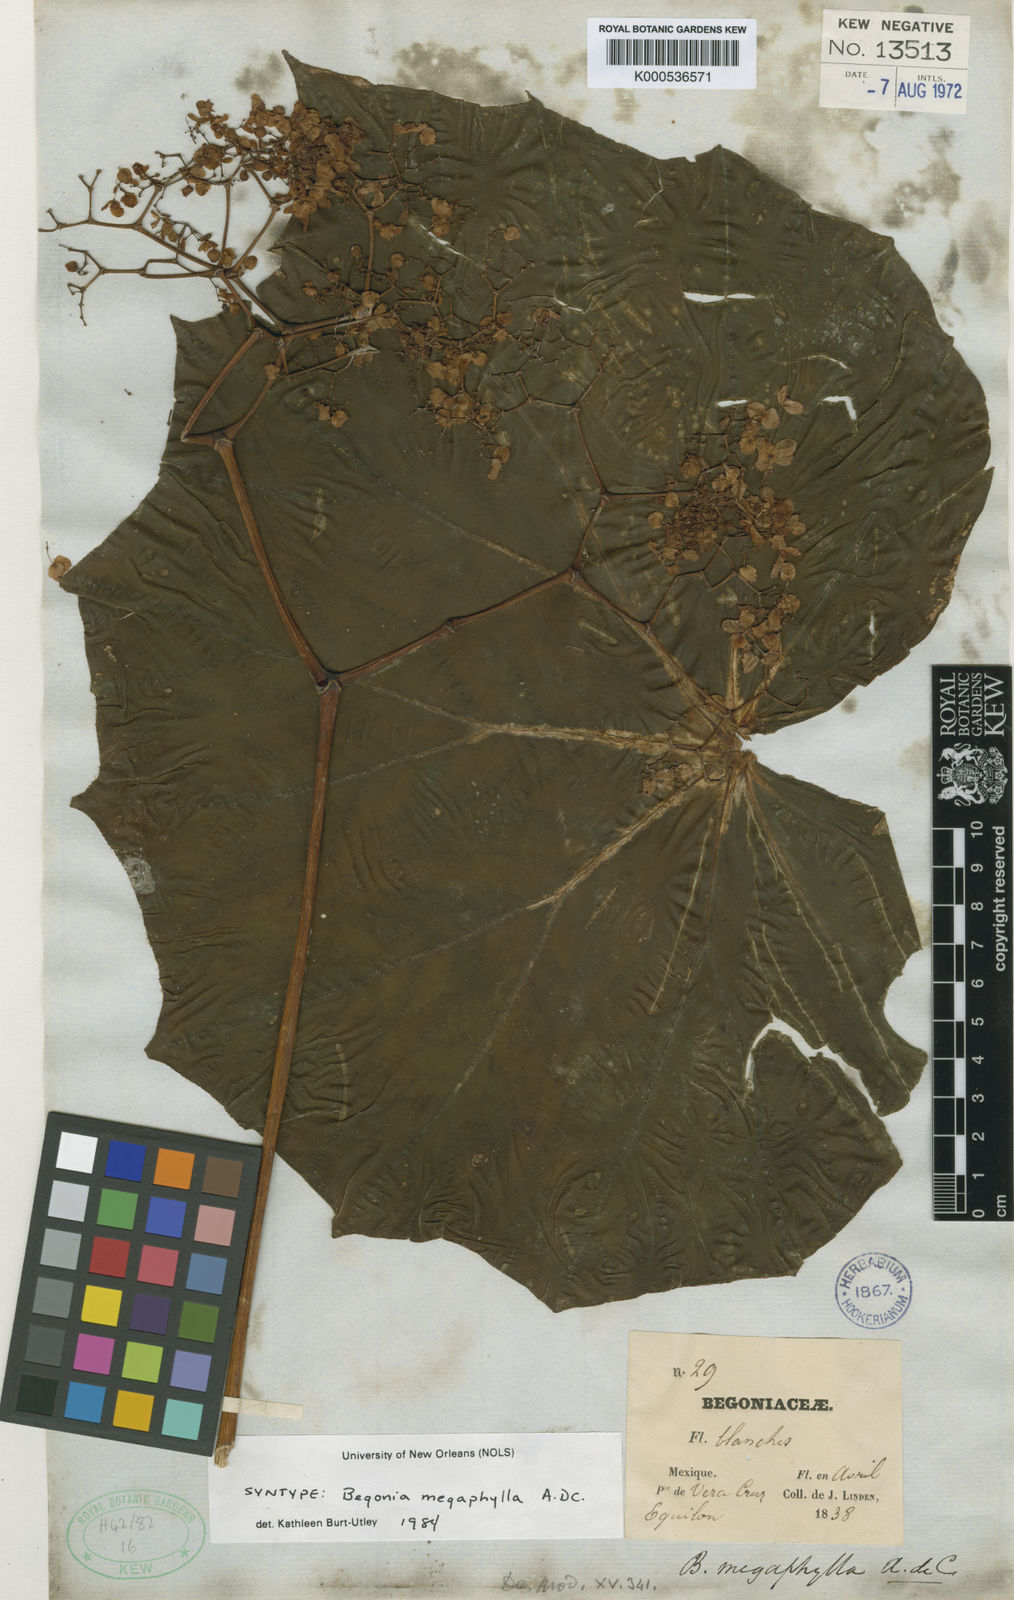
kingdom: Plantae
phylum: Tracheophyta
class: Magnoliopsida
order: Cucurbitales
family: Begoniaceae
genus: Begonia
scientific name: Begonia barkeri
